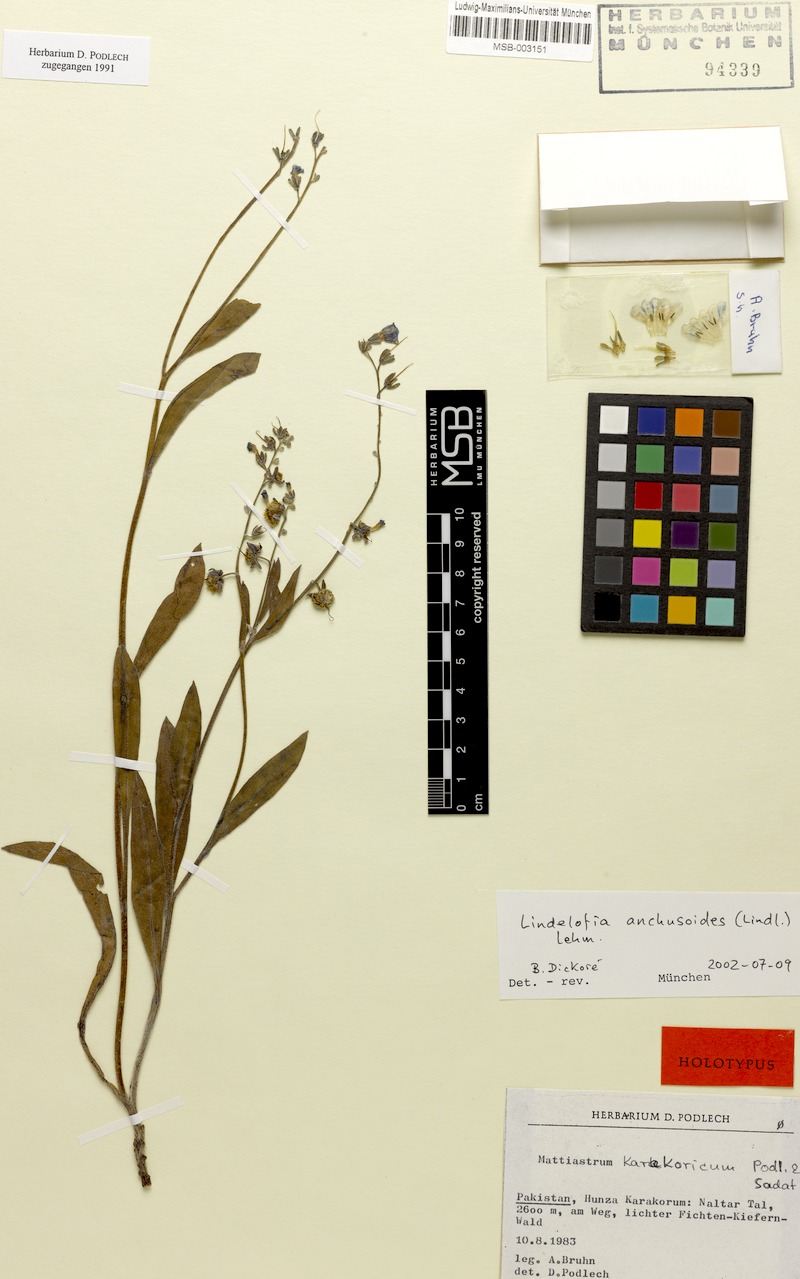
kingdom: Plantae
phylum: Tracheophyta
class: Magnoliopsida
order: Boraginales
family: Boraginaceae
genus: Lindelofia
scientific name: Lindelofia anchusoides
